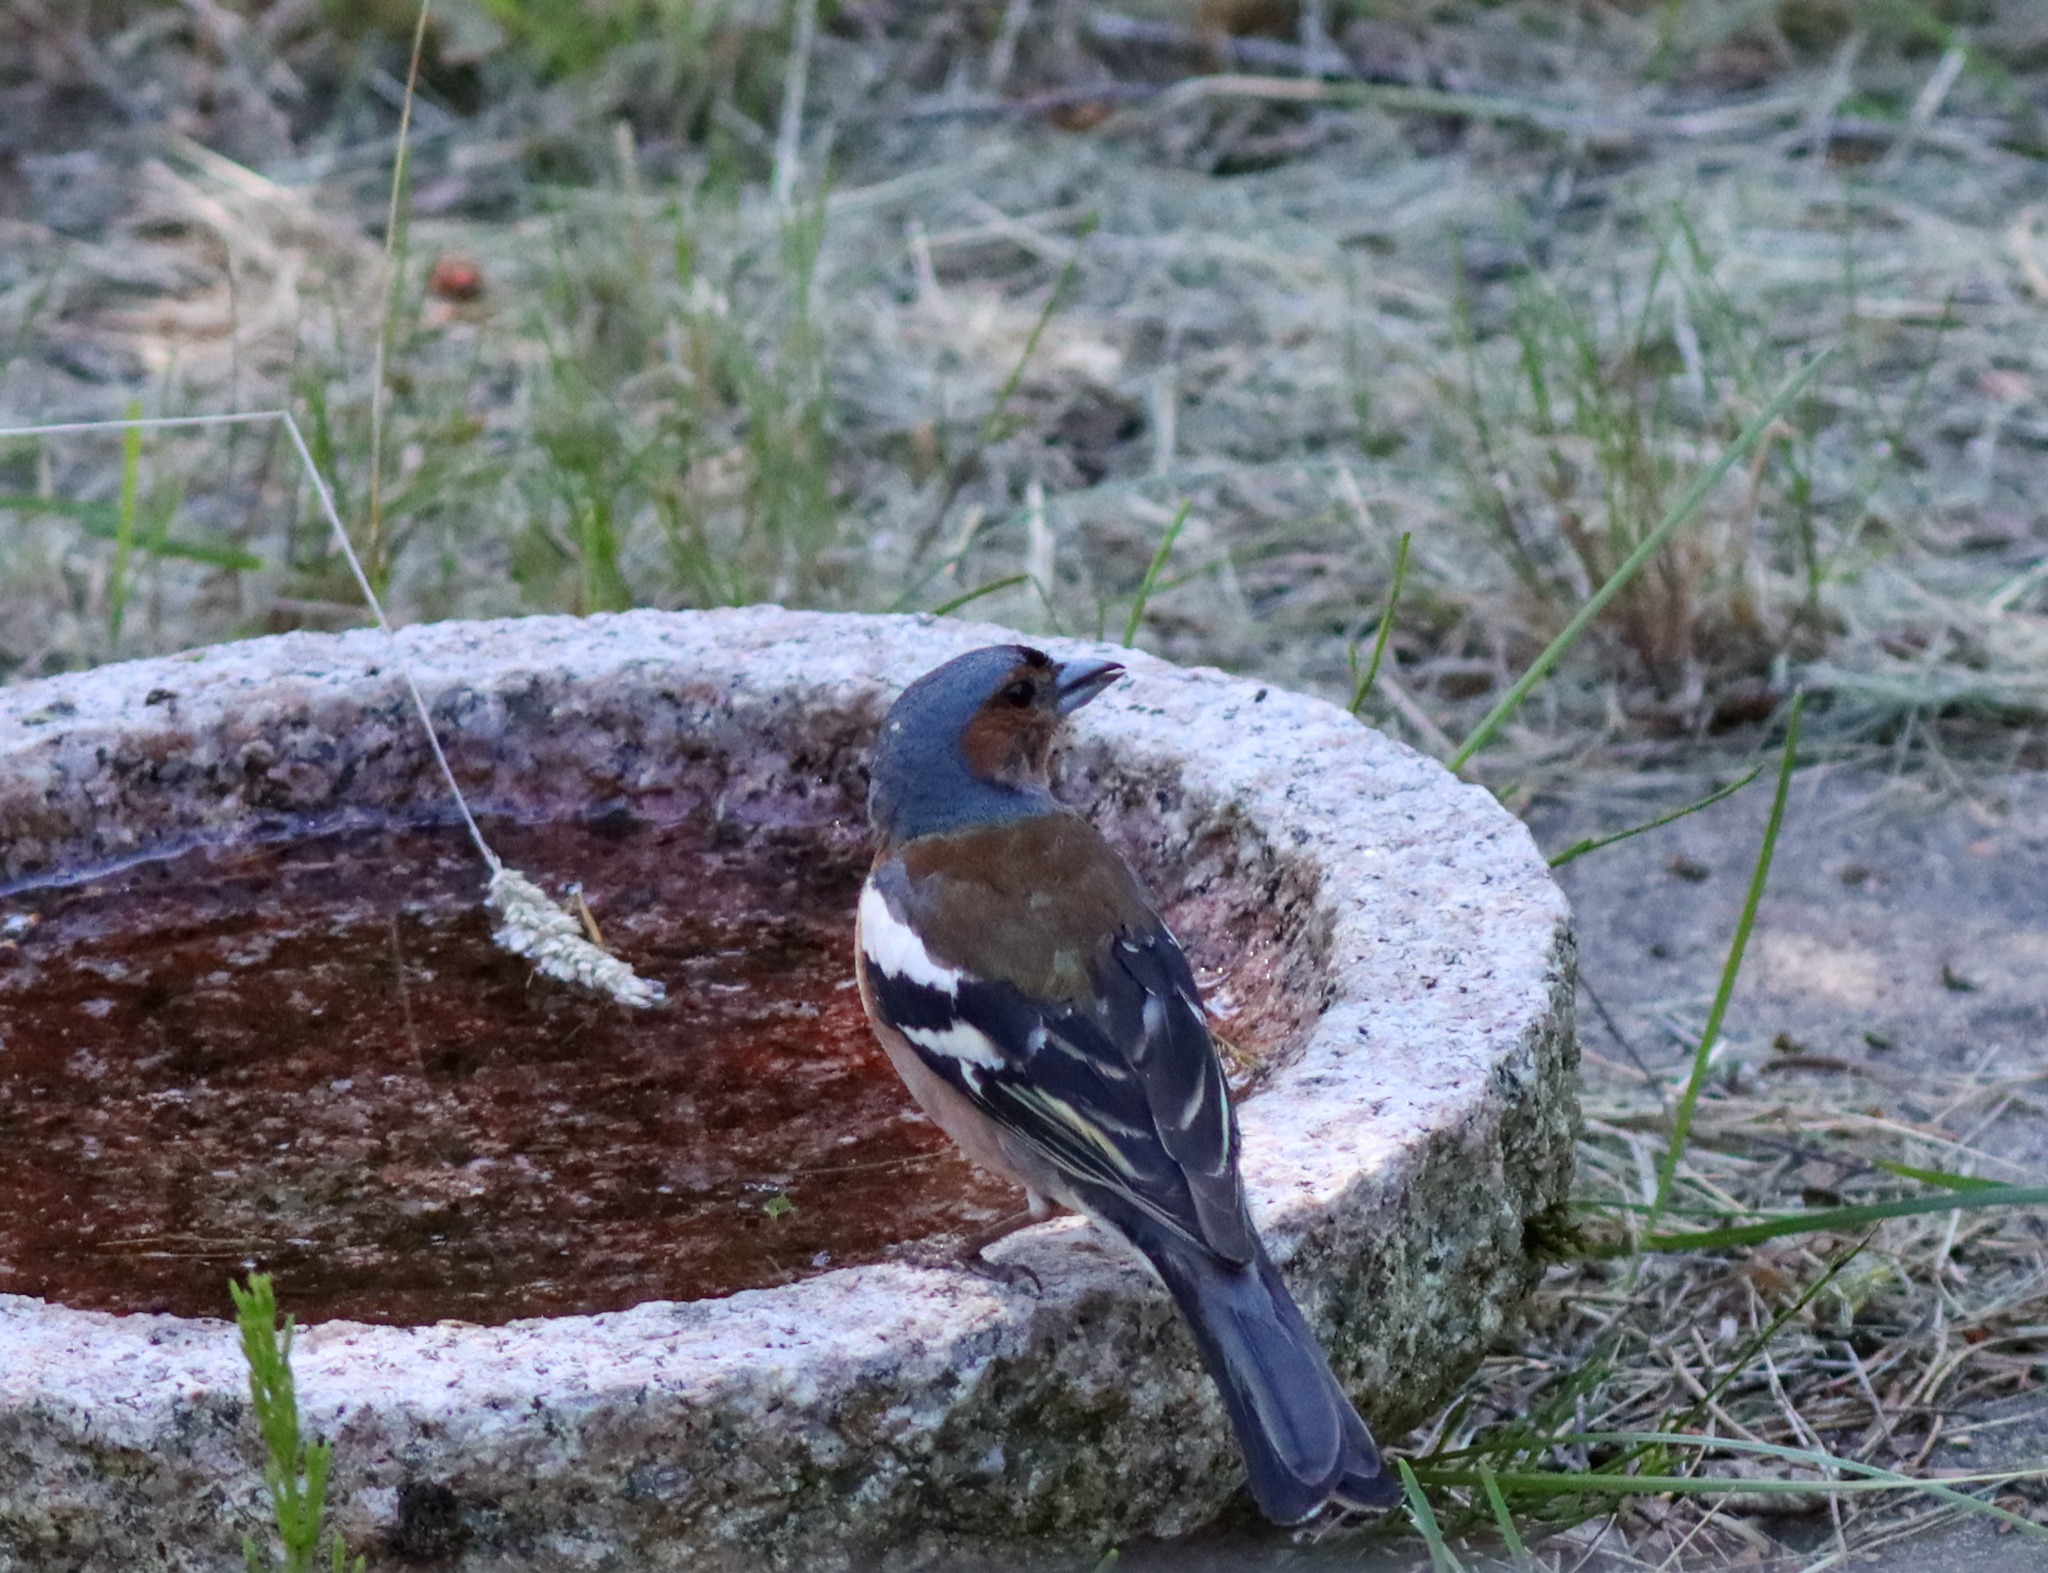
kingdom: Animalia
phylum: Chordata
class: Aves
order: Passeriformes
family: Fringillidae
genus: Fringilla
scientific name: Fringilla coelebs
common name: Bogfinke
